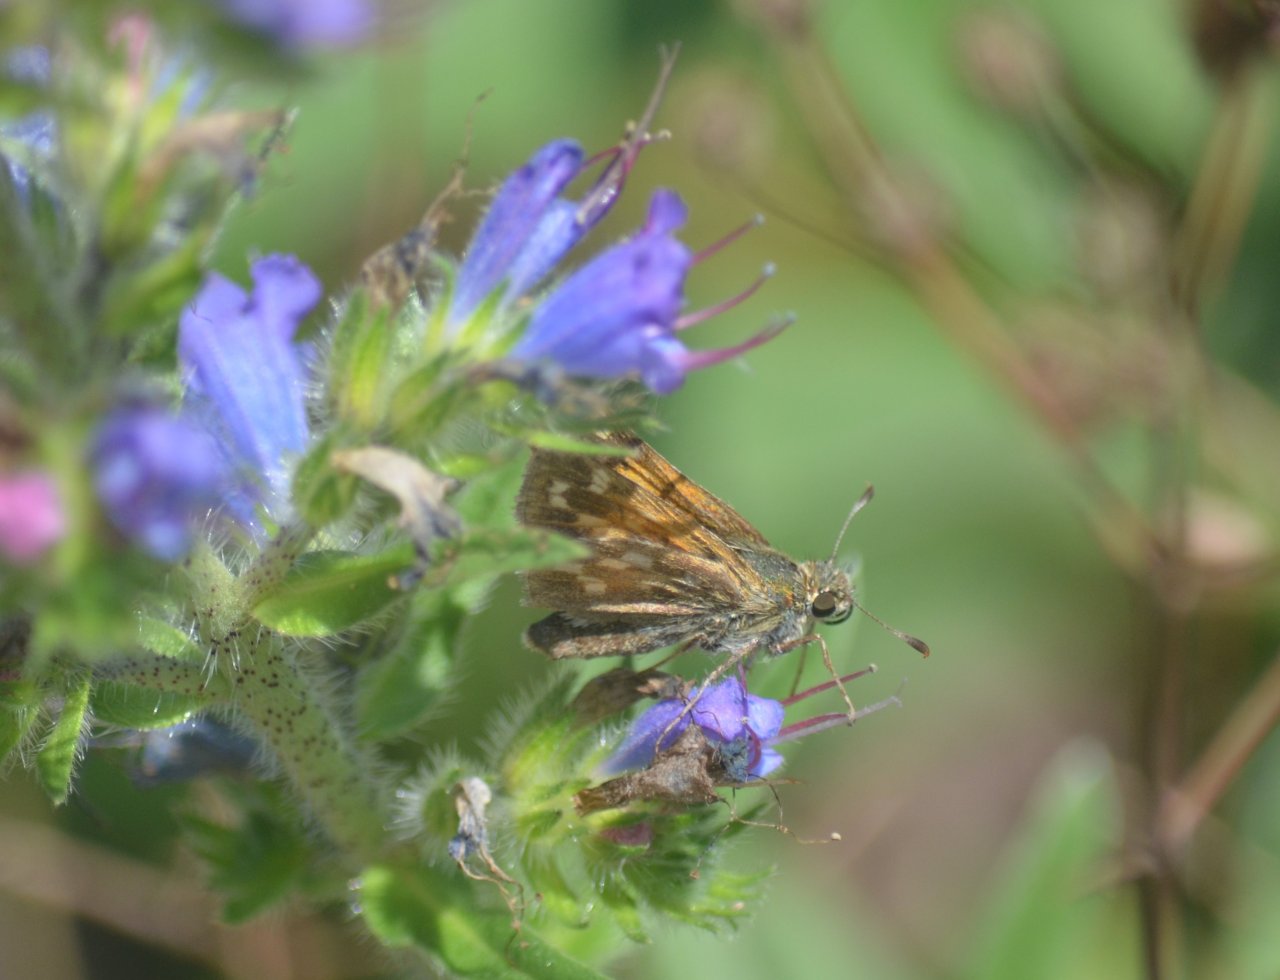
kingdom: Animalia
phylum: Arthropoda
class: Insecta
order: Lepidoptera
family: Hesperiidae
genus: Polites
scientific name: Polites
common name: Long Dash Skipper
